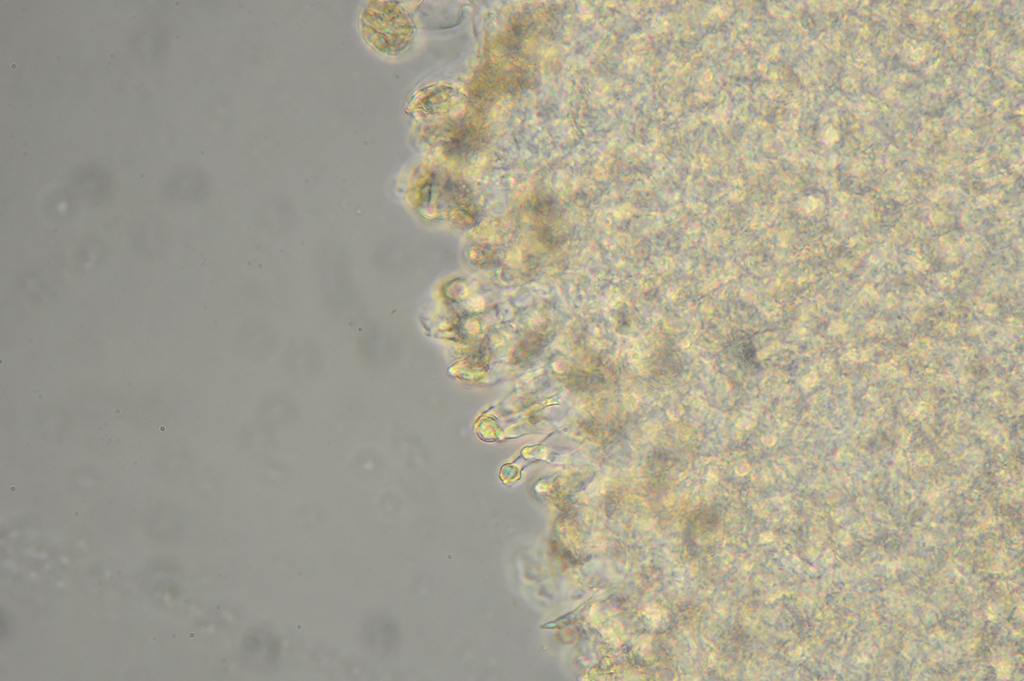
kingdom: Fungi
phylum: Basidiomycota
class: Agaricomycetes
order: Agaricales
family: Mycenaceae
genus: Hemimycena
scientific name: Hemimycena tortuosa
